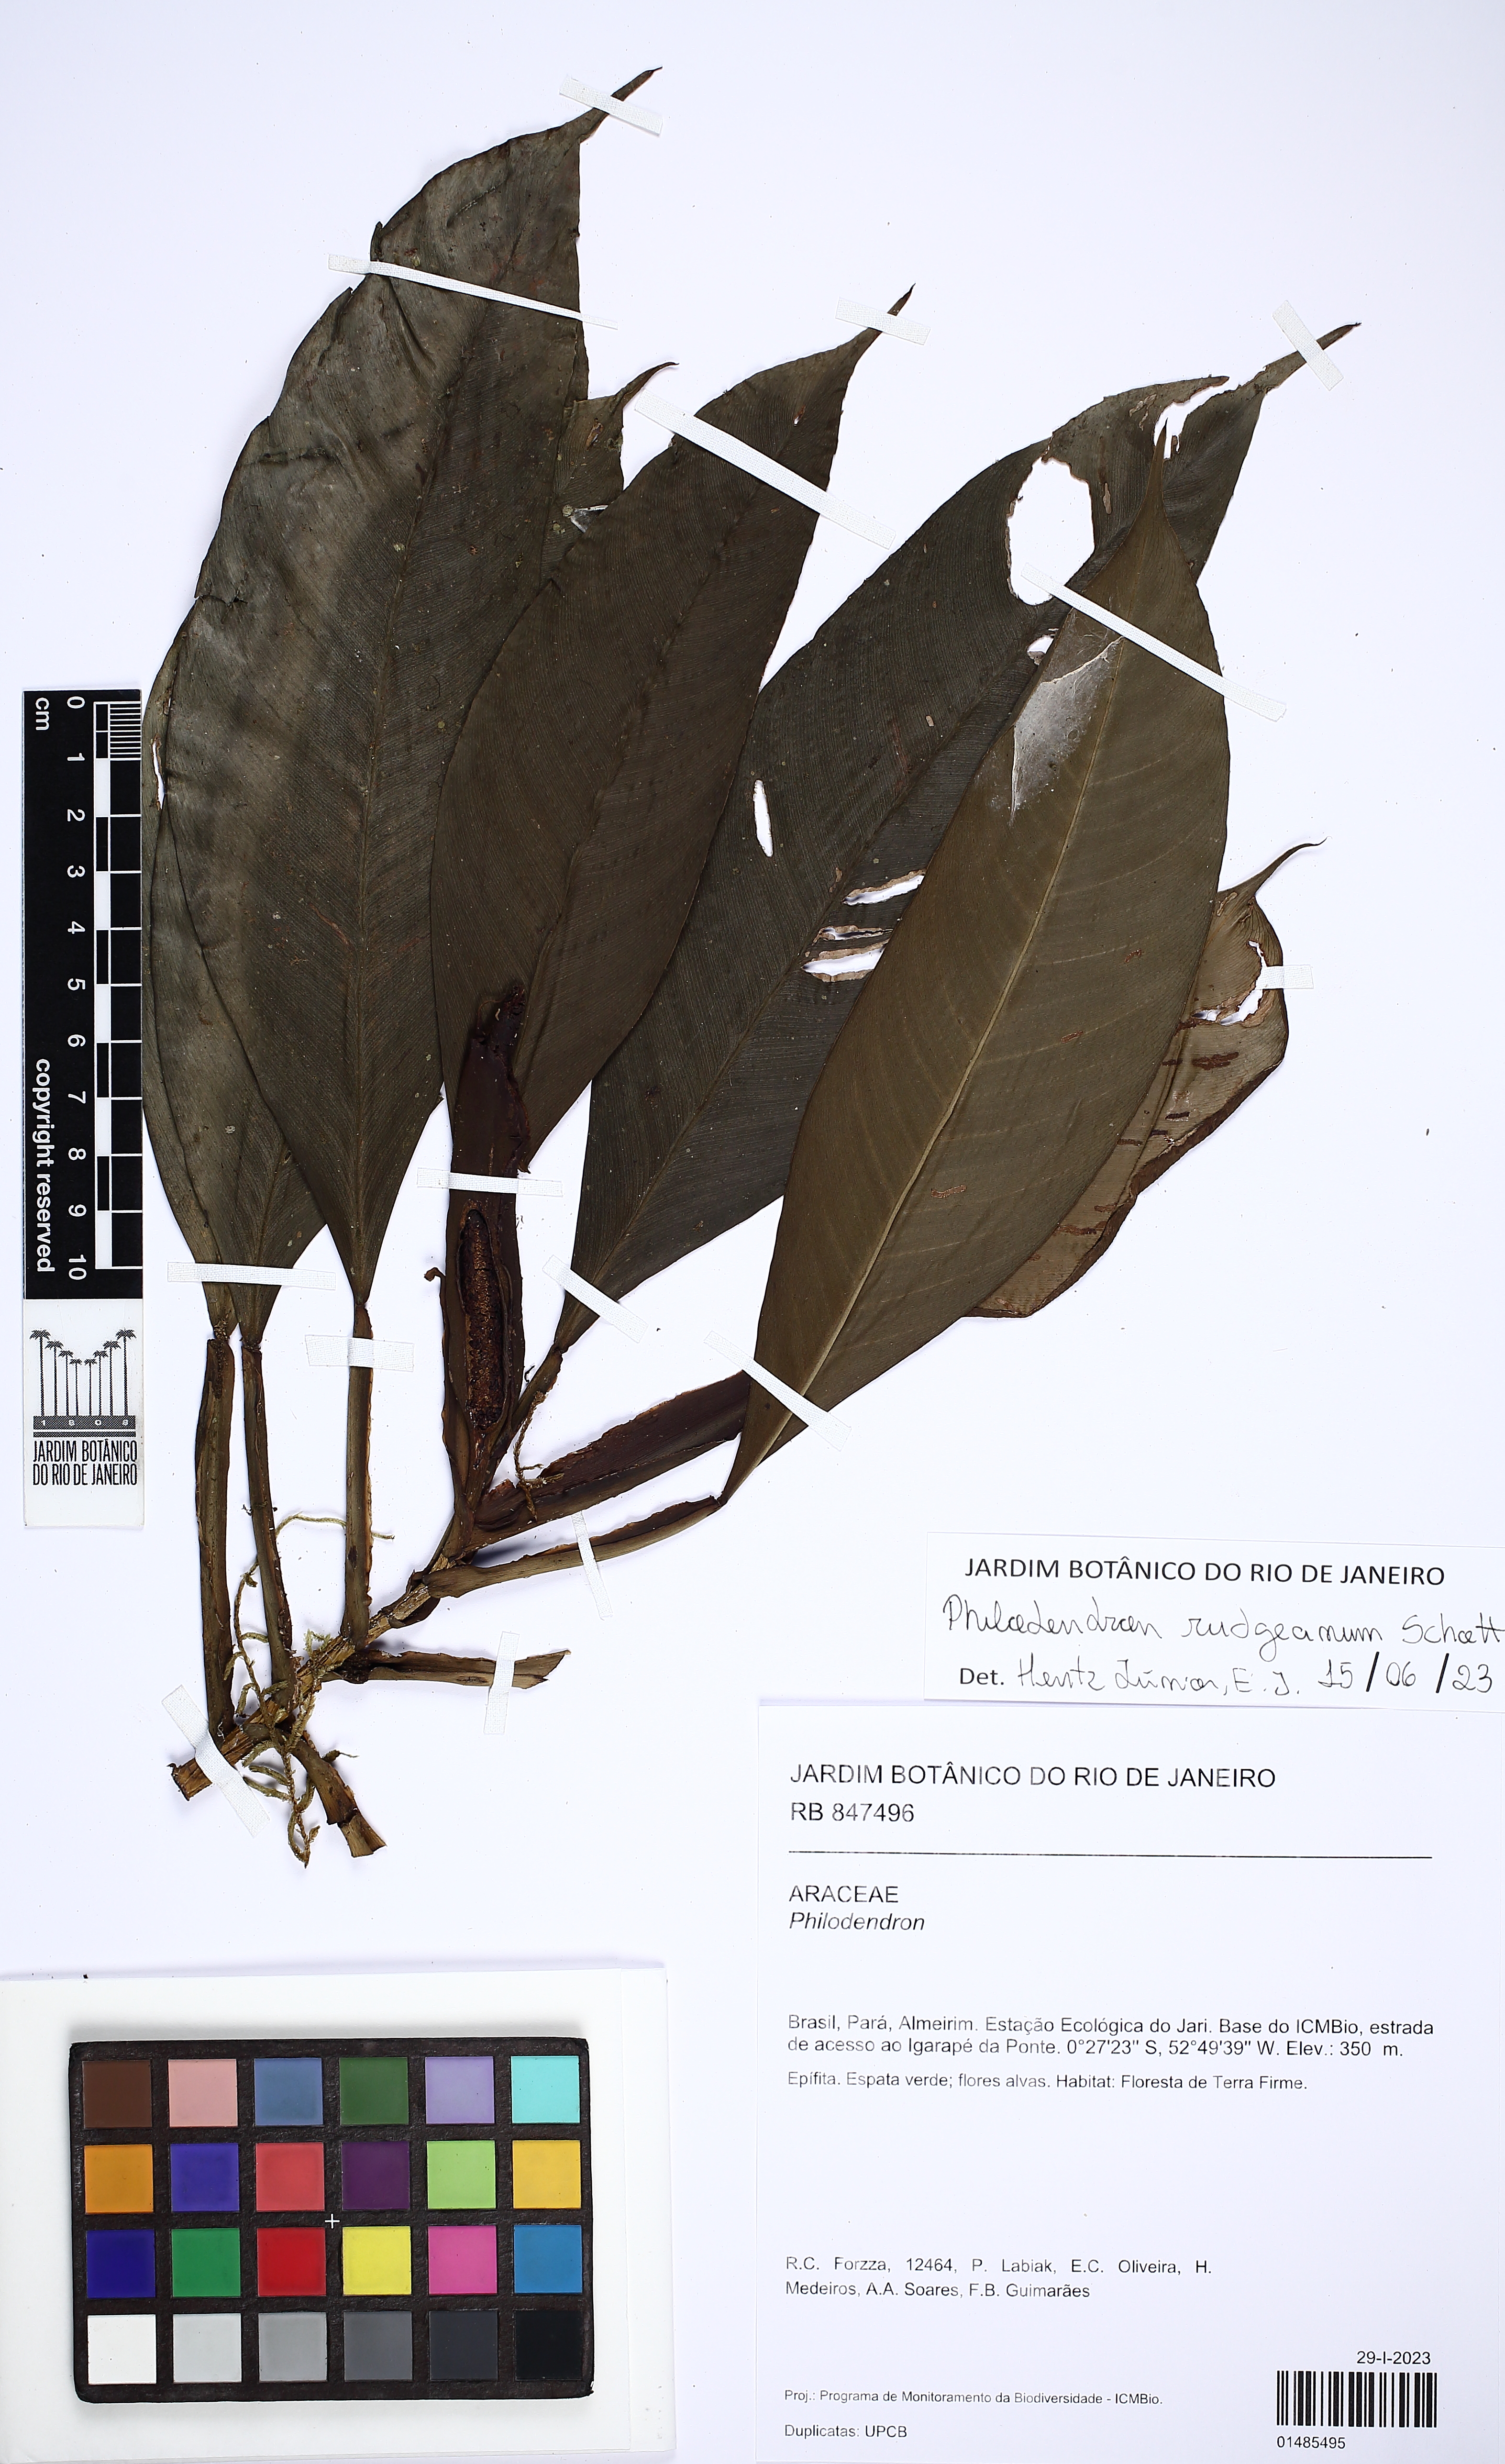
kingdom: Plantae
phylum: Tracheophyta
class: Liliopsida
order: Alismatales
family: Araceae
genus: Philodendron
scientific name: Philodendron rudgeanum
